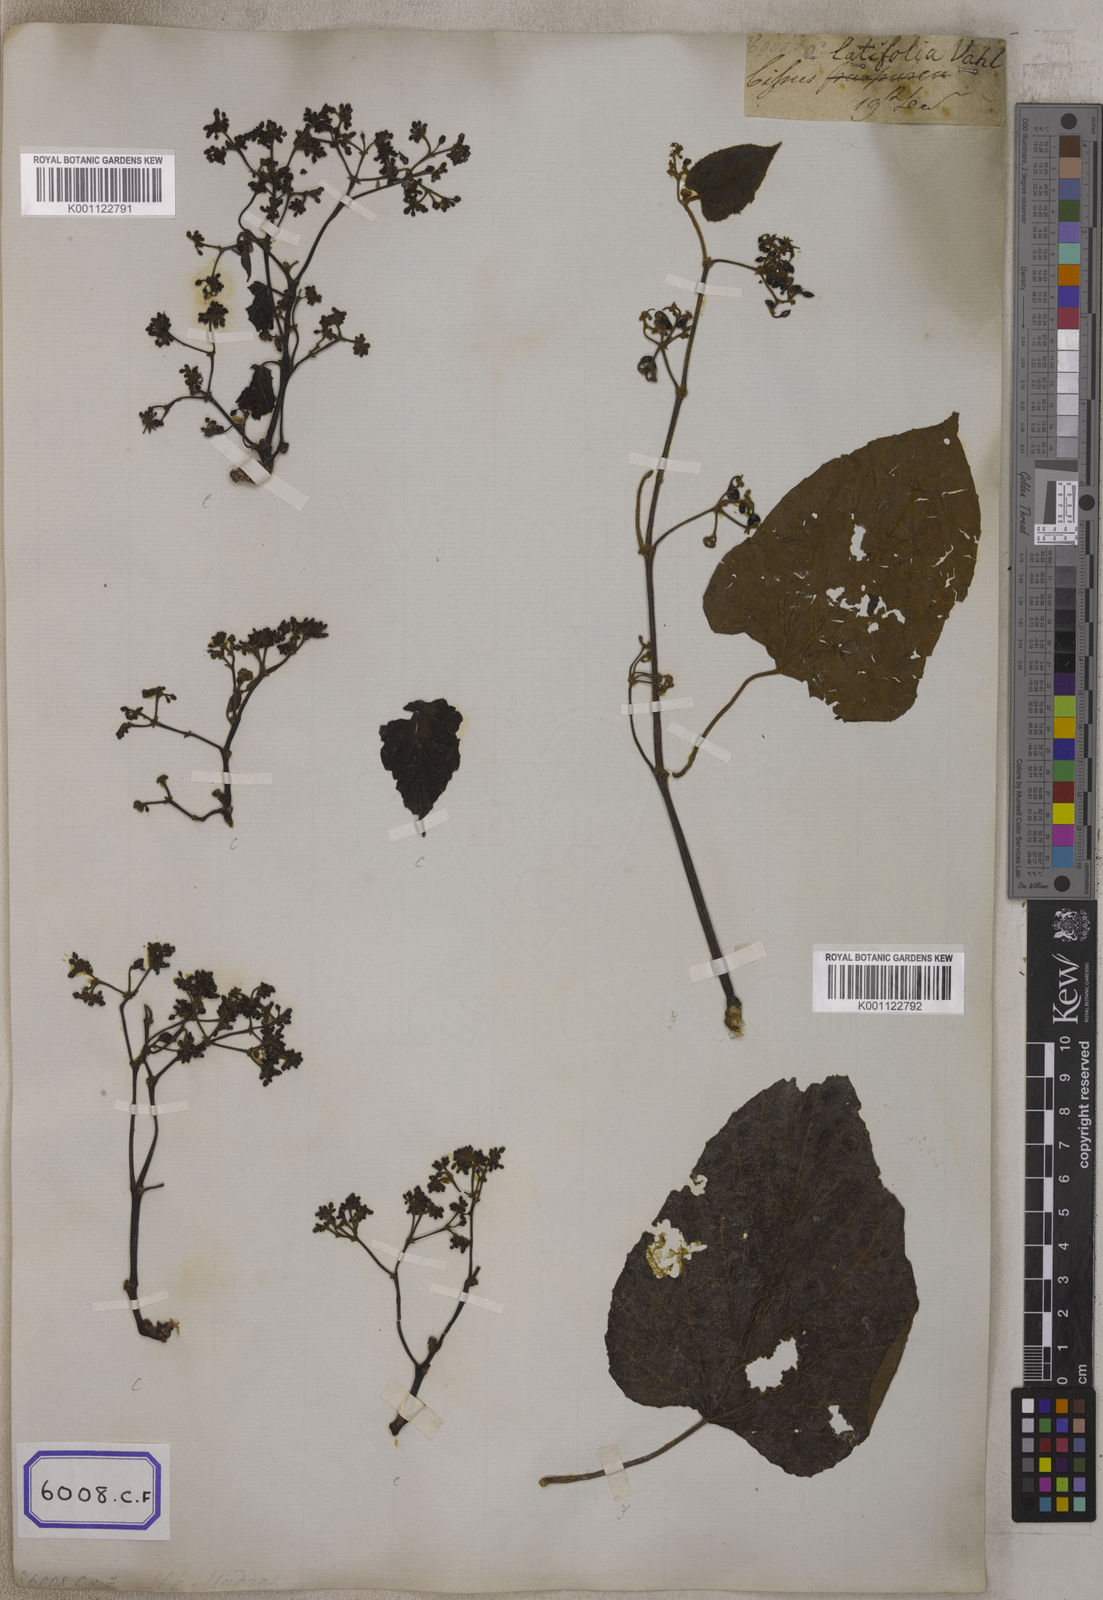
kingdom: Plantae
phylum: Tracheophyta
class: Magnoliopsida
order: Vitales
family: Vitaceae
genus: Cissus
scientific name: Cissus repens
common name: Cissus
